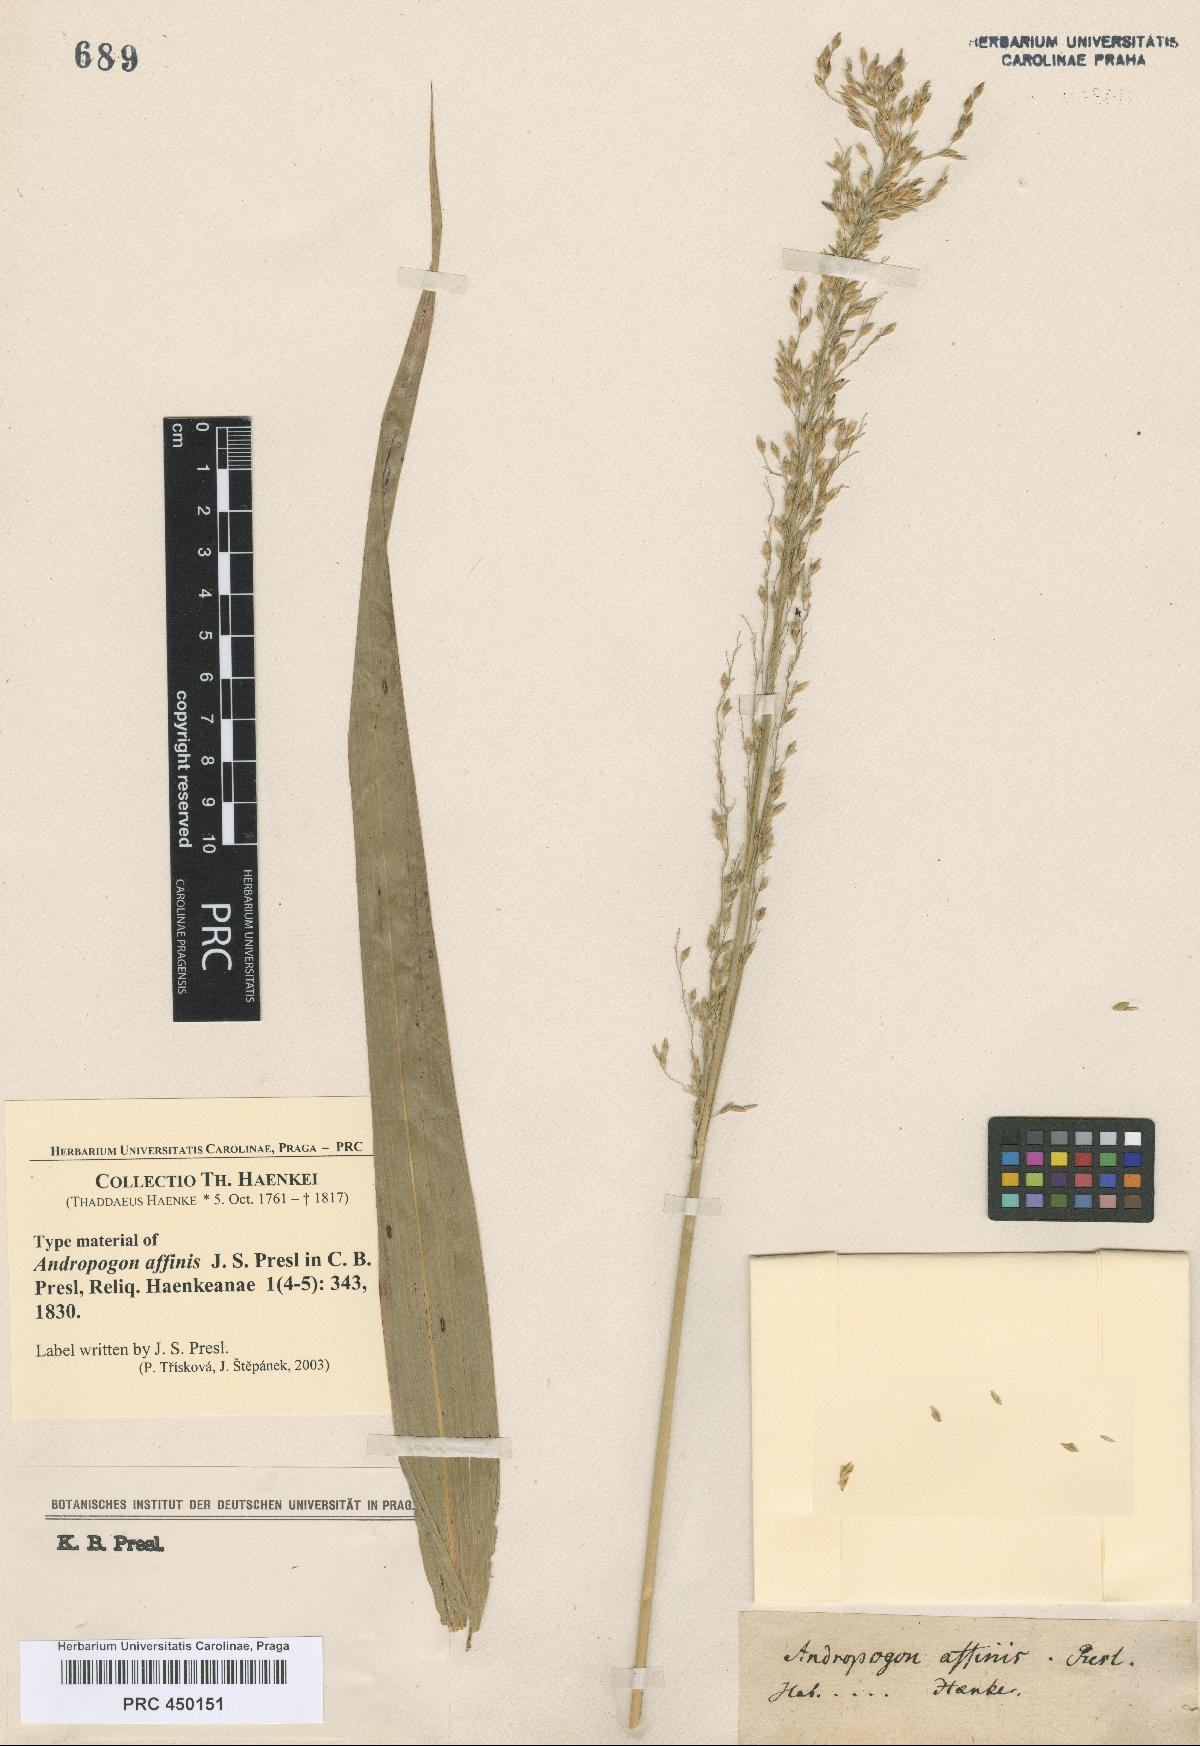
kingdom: Plantae
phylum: Tracheophyta
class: Liliopsida
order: Poales
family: Poaceae
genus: Sorghum
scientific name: Sorghum propinquum
